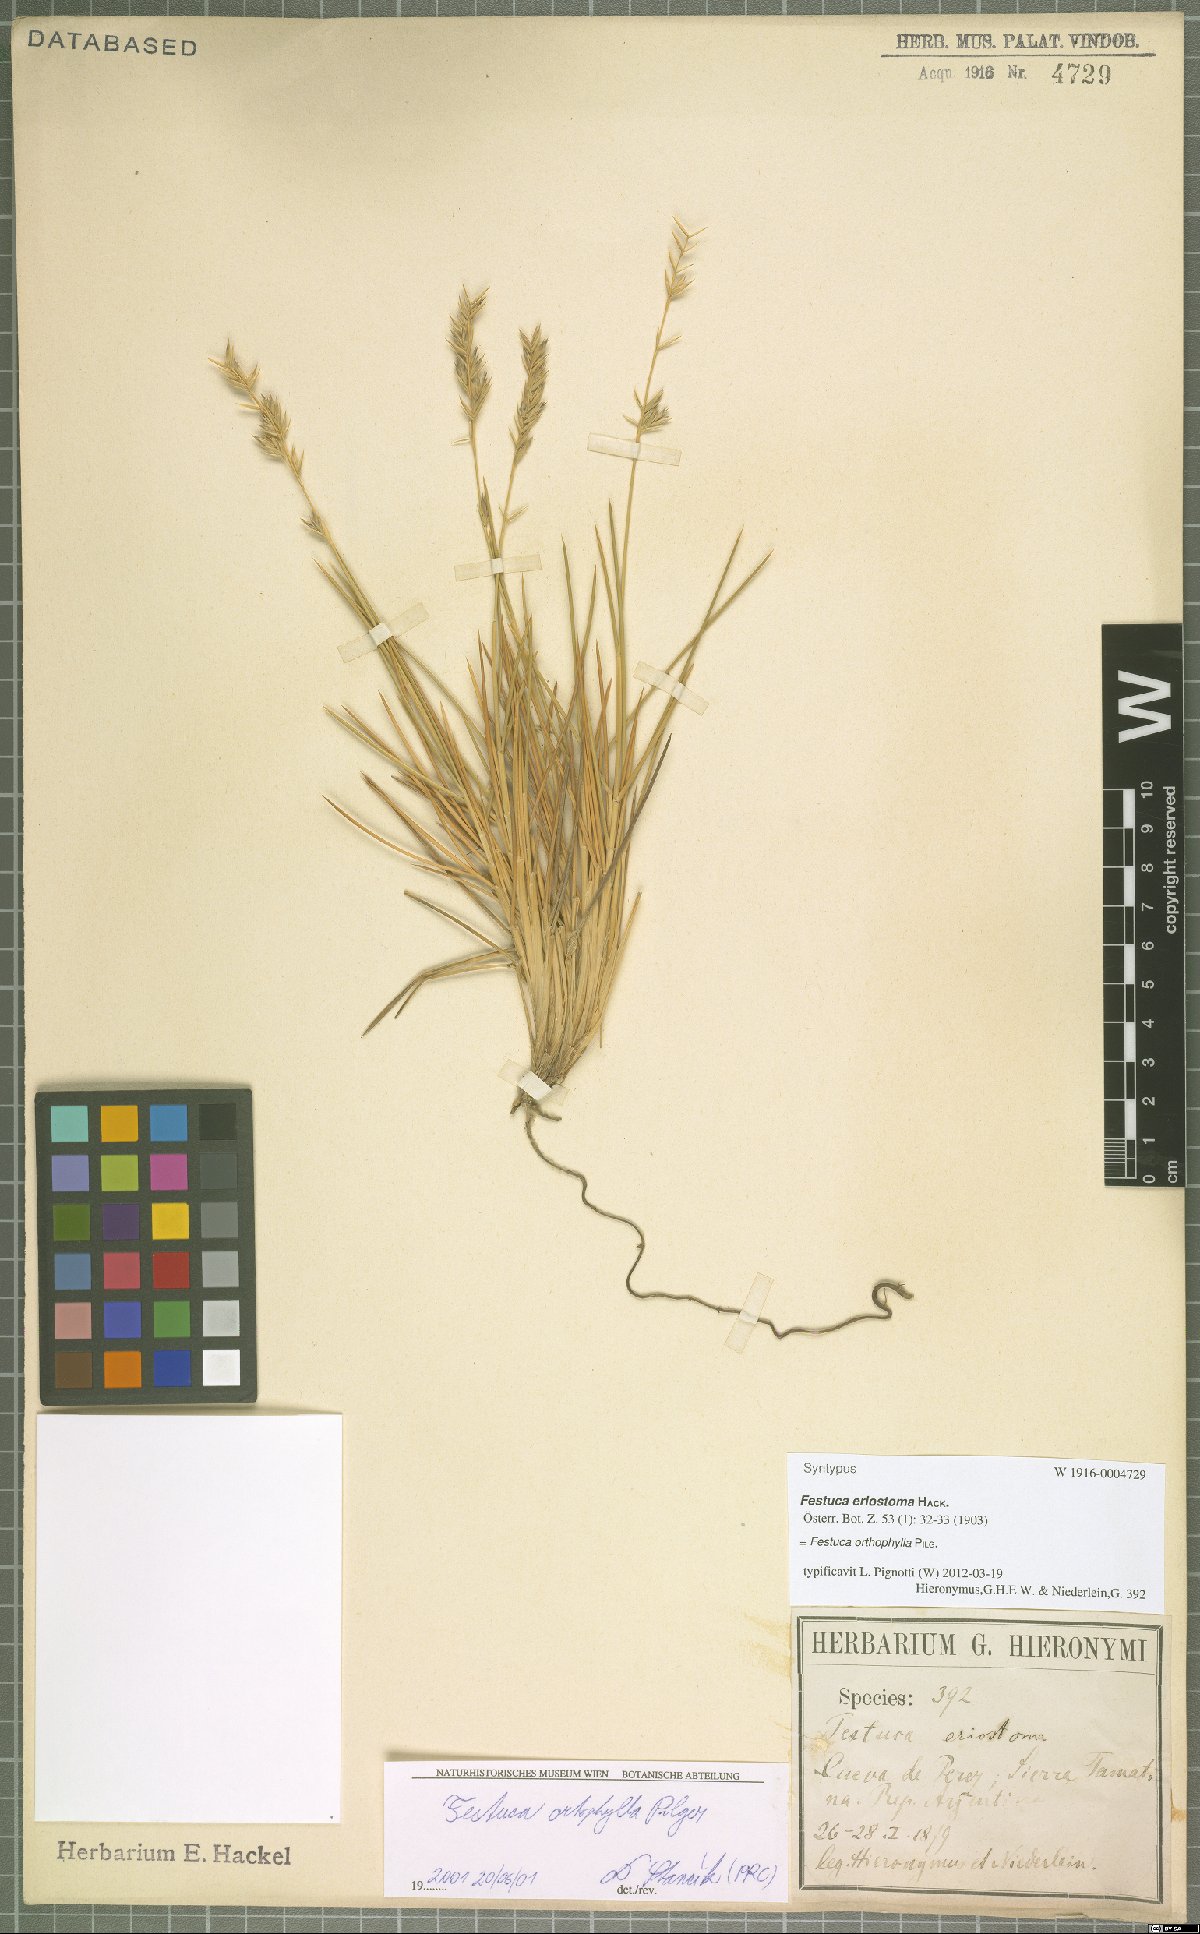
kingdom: Plantae
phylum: Tracheophyta
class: Liliopsida
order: Poales
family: Poaceae
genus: Festuca
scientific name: Festuca chrysophylla
